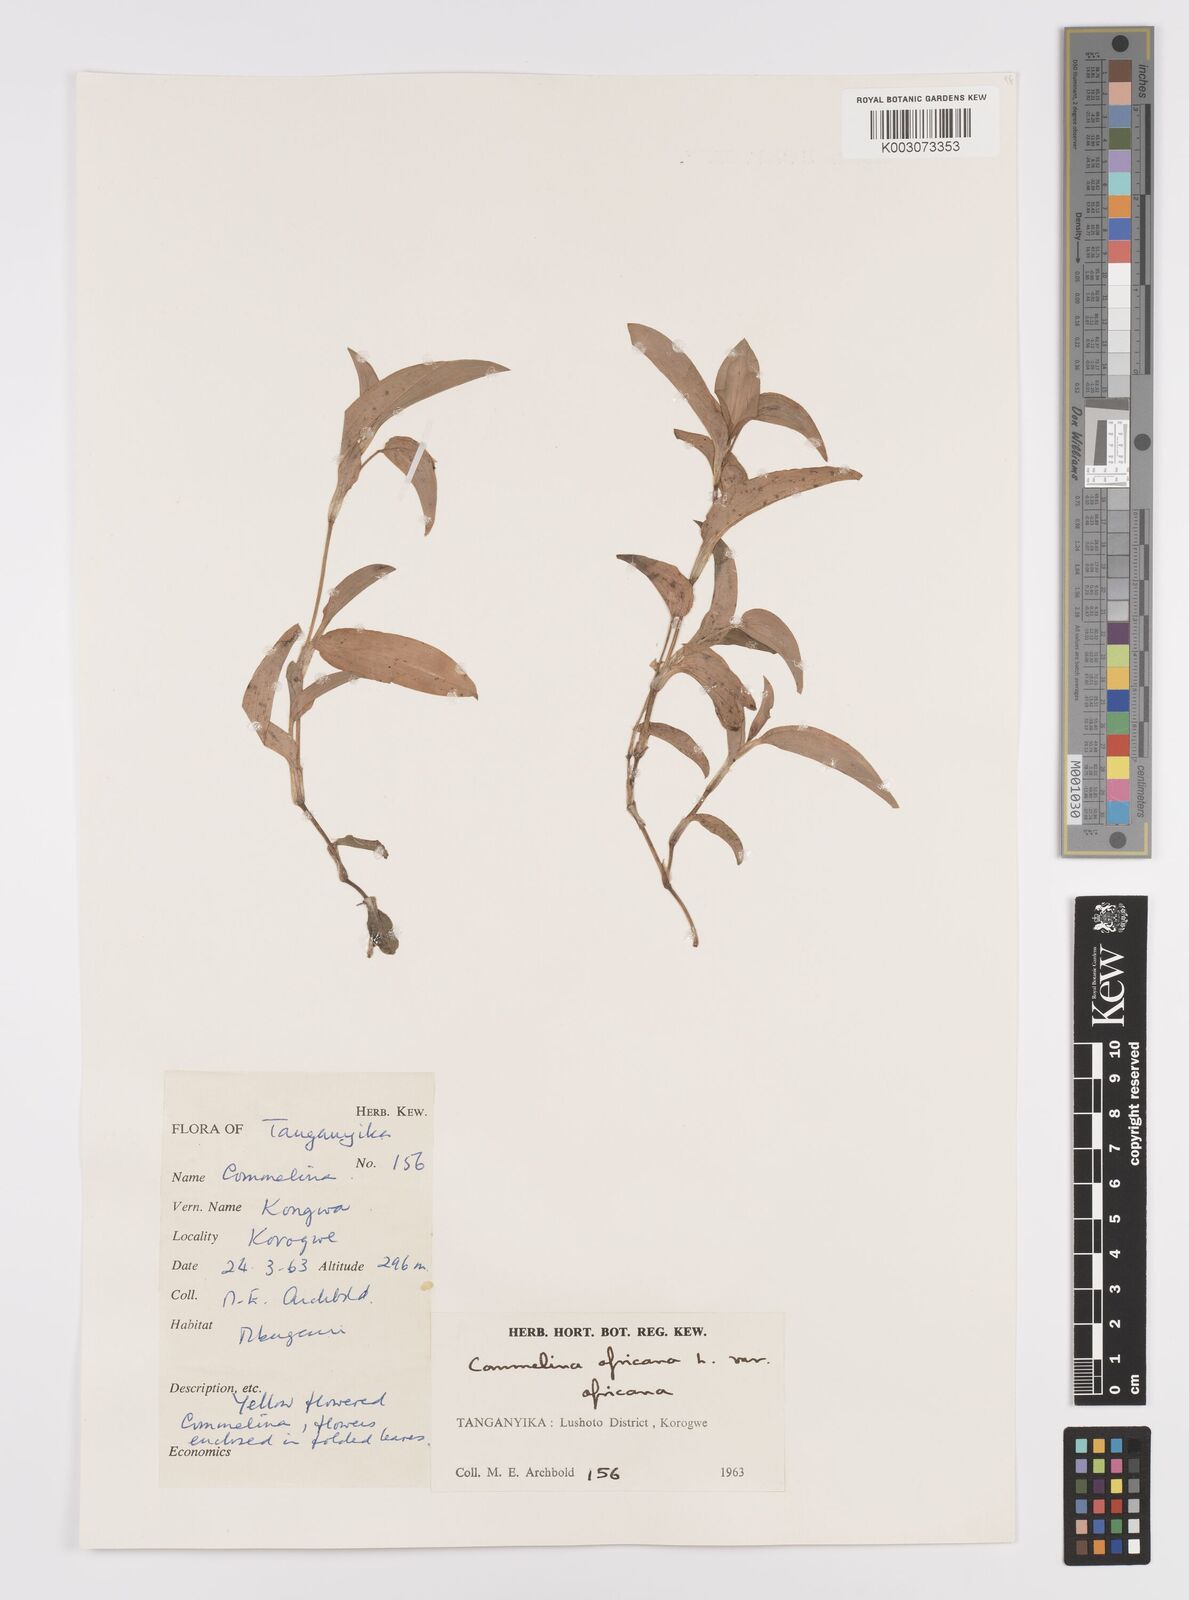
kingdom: Plantae
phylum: Tracheophyta
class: Liliopsida
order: Commelinales
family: Commelinaceae
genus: Commelina
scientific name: Commelina africana
